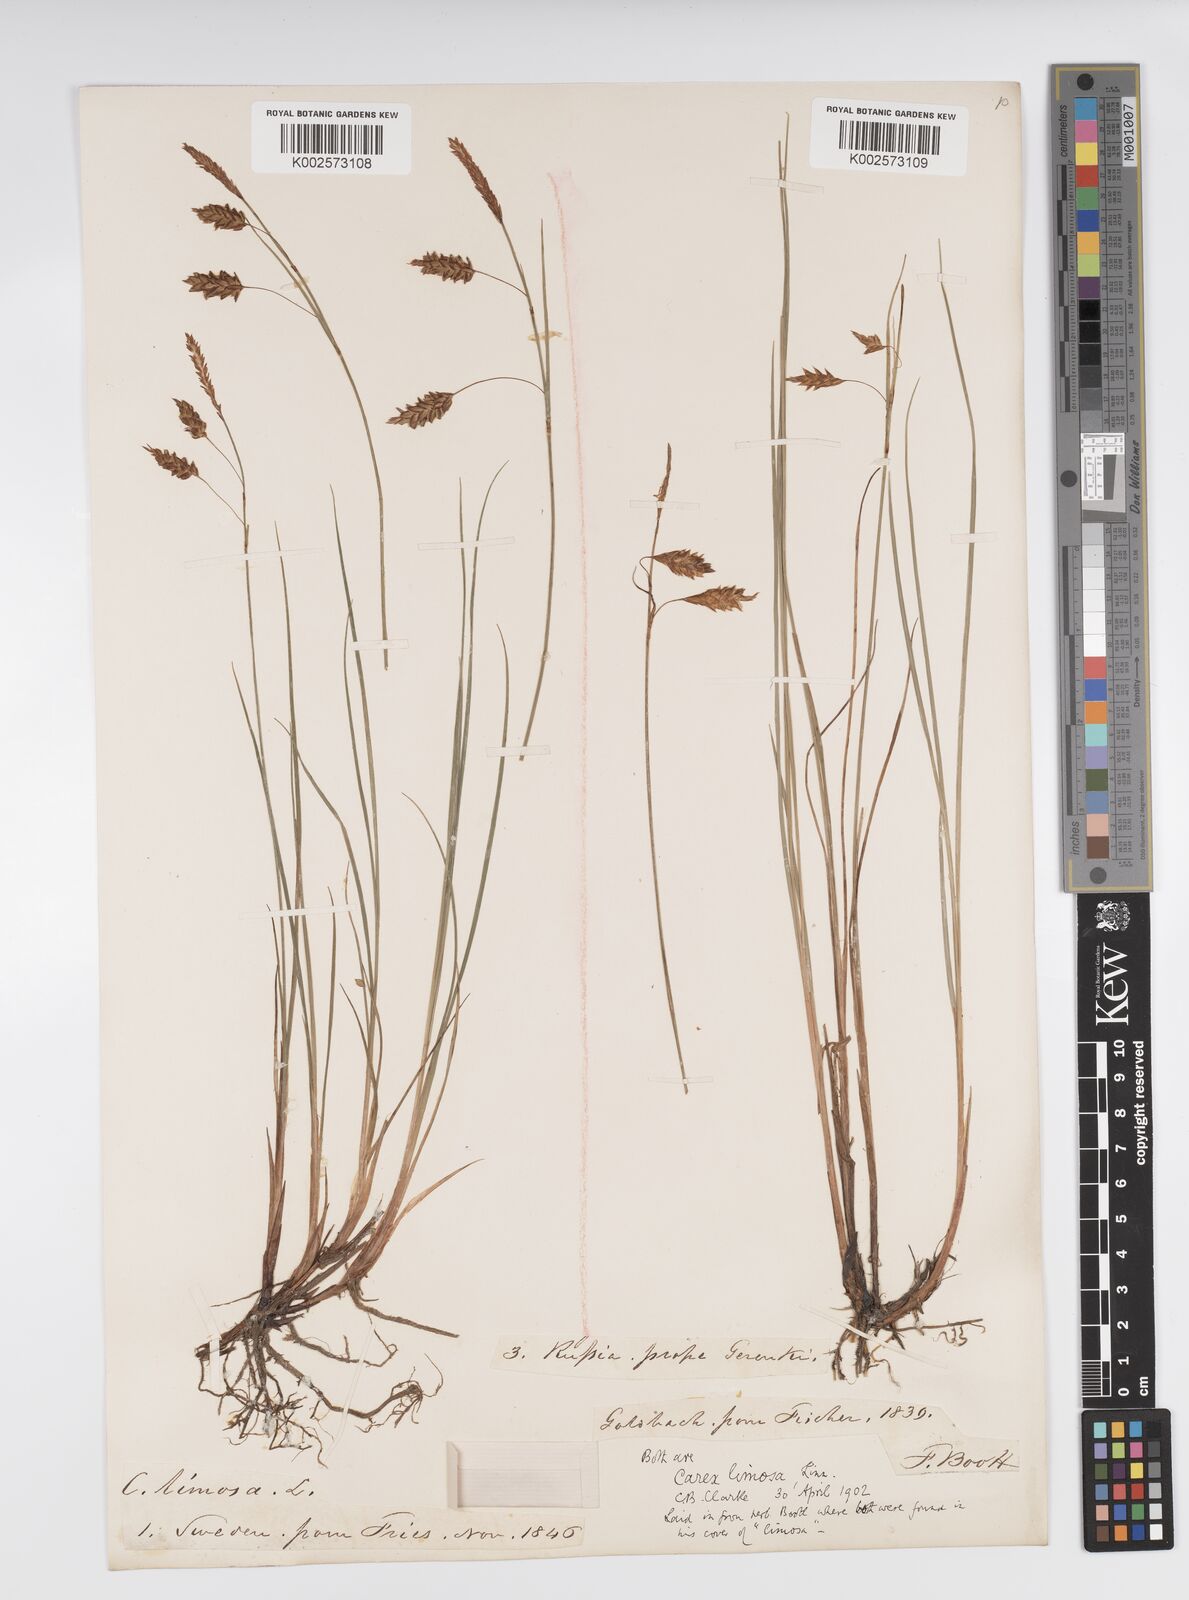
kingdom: Plantae
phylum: Tracheophyta
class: Liliopsida
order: Poales
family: Cyperaceae
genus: Carex
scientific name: Carex limosa
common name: Bog sedge
